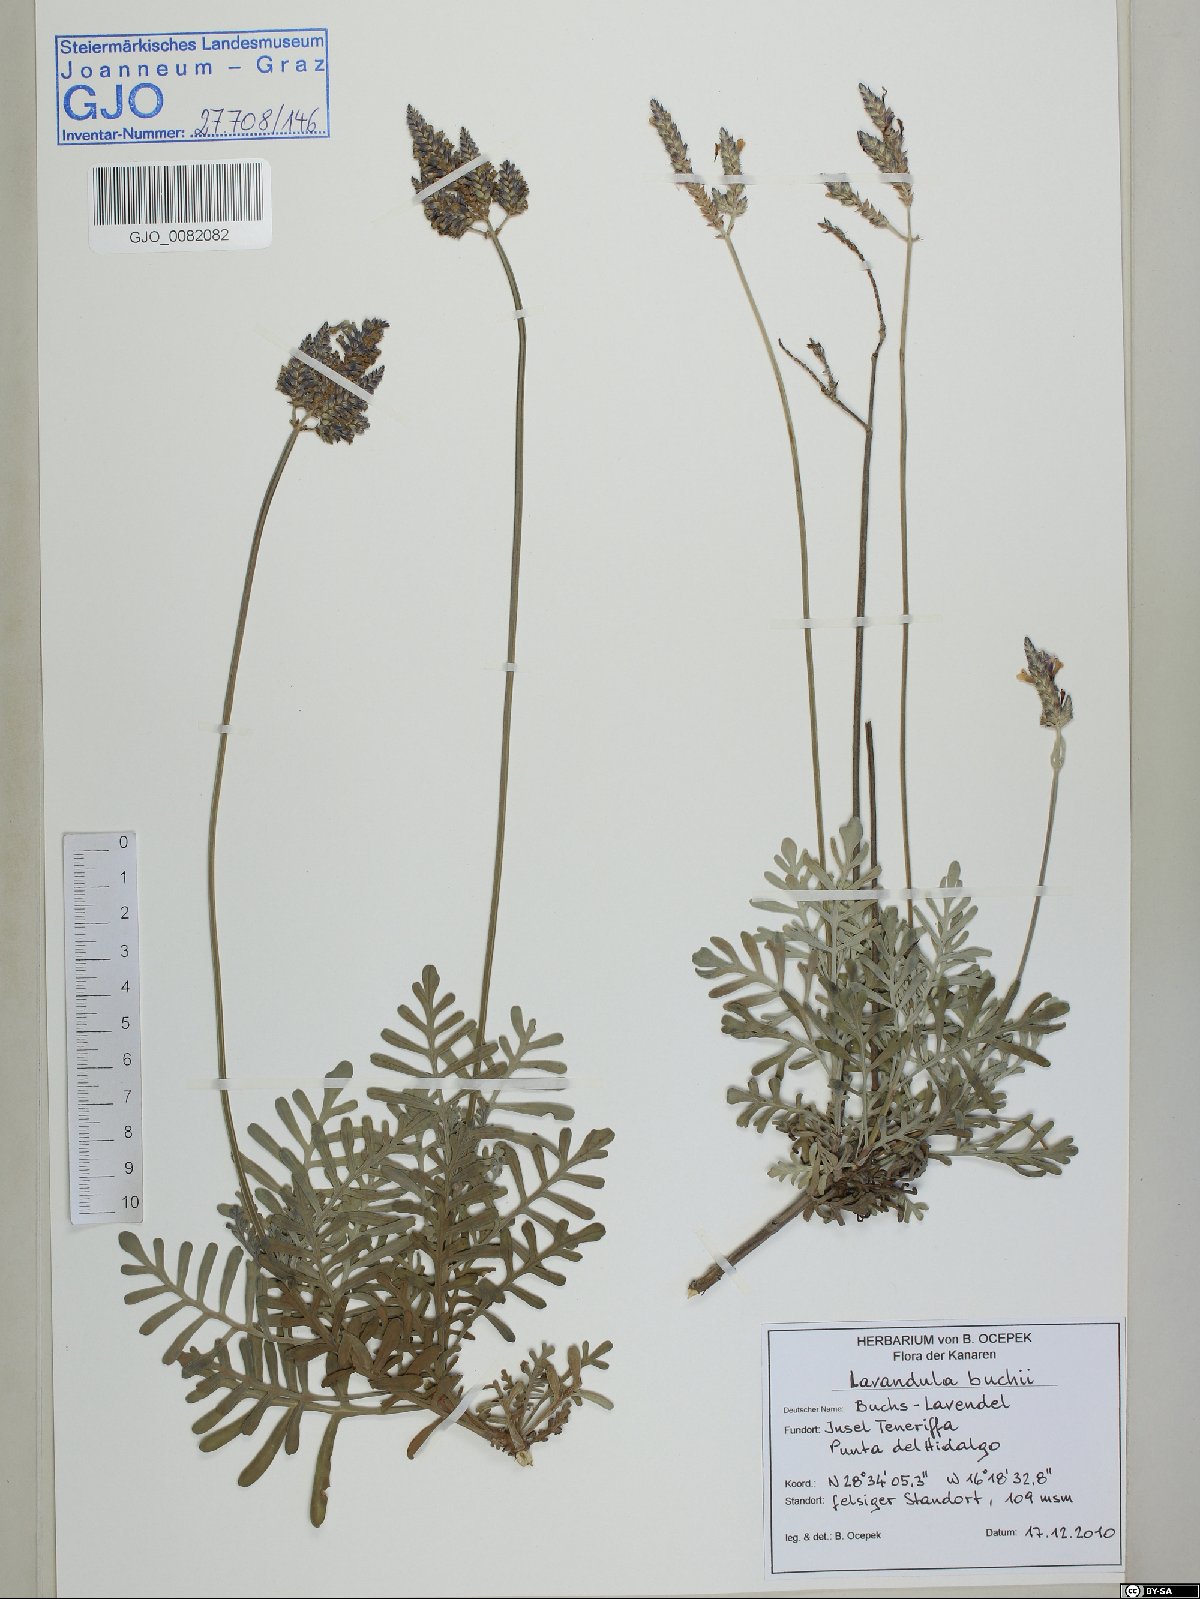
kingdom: Plantae
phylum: Tracheophyta
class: Magnoliopsida
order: Lamiales
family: Lamiaceae
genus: Lavandula
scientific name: Lavandula buchii
